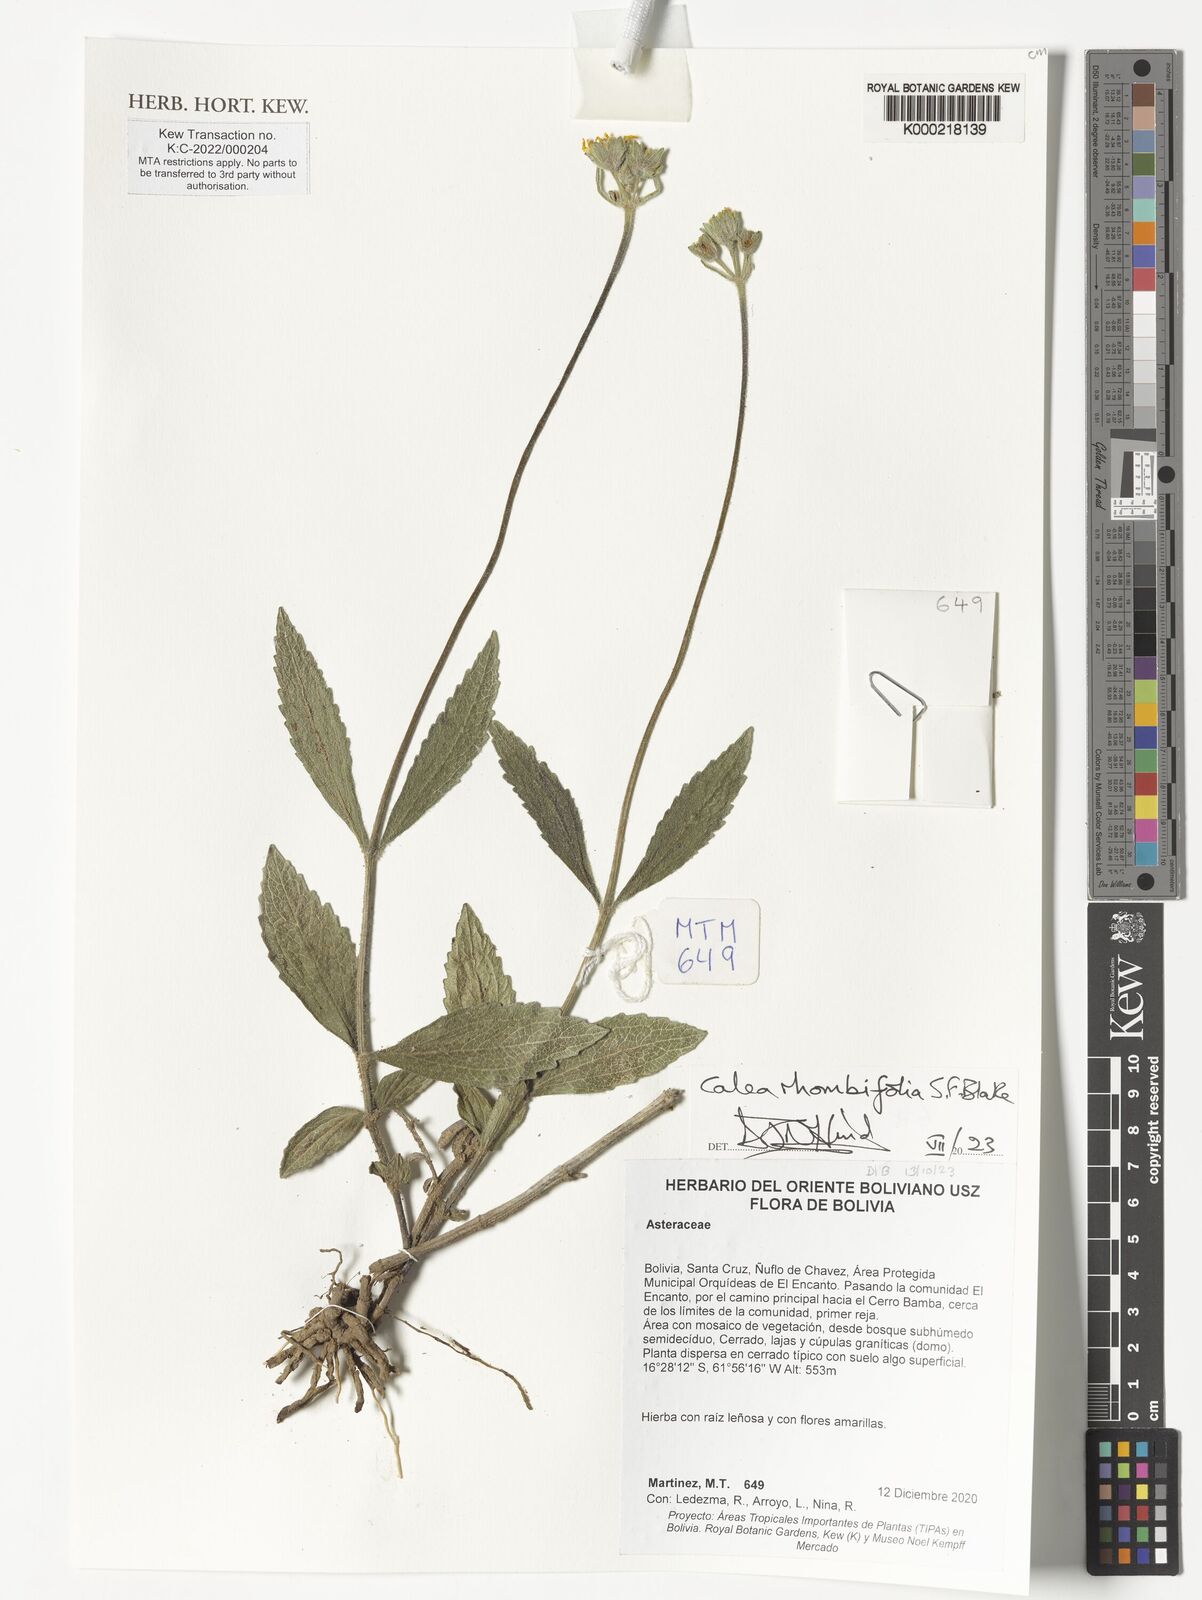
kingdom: Plantae
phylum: Tracheophyta
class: Magnoliopsida
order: Asterales
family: Asteraceae
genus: Calea
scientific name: Calea rhombifolia
